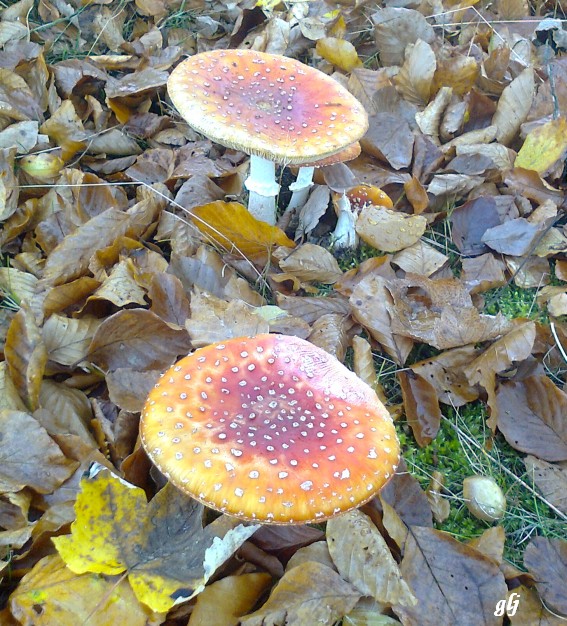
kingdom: Fungi
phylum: Basidiomycota
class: Agaricomycetes
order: Agaricales
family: Amanitaceae
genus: Amanita
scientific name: Amanita muscaria
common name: rød fluesvamp
